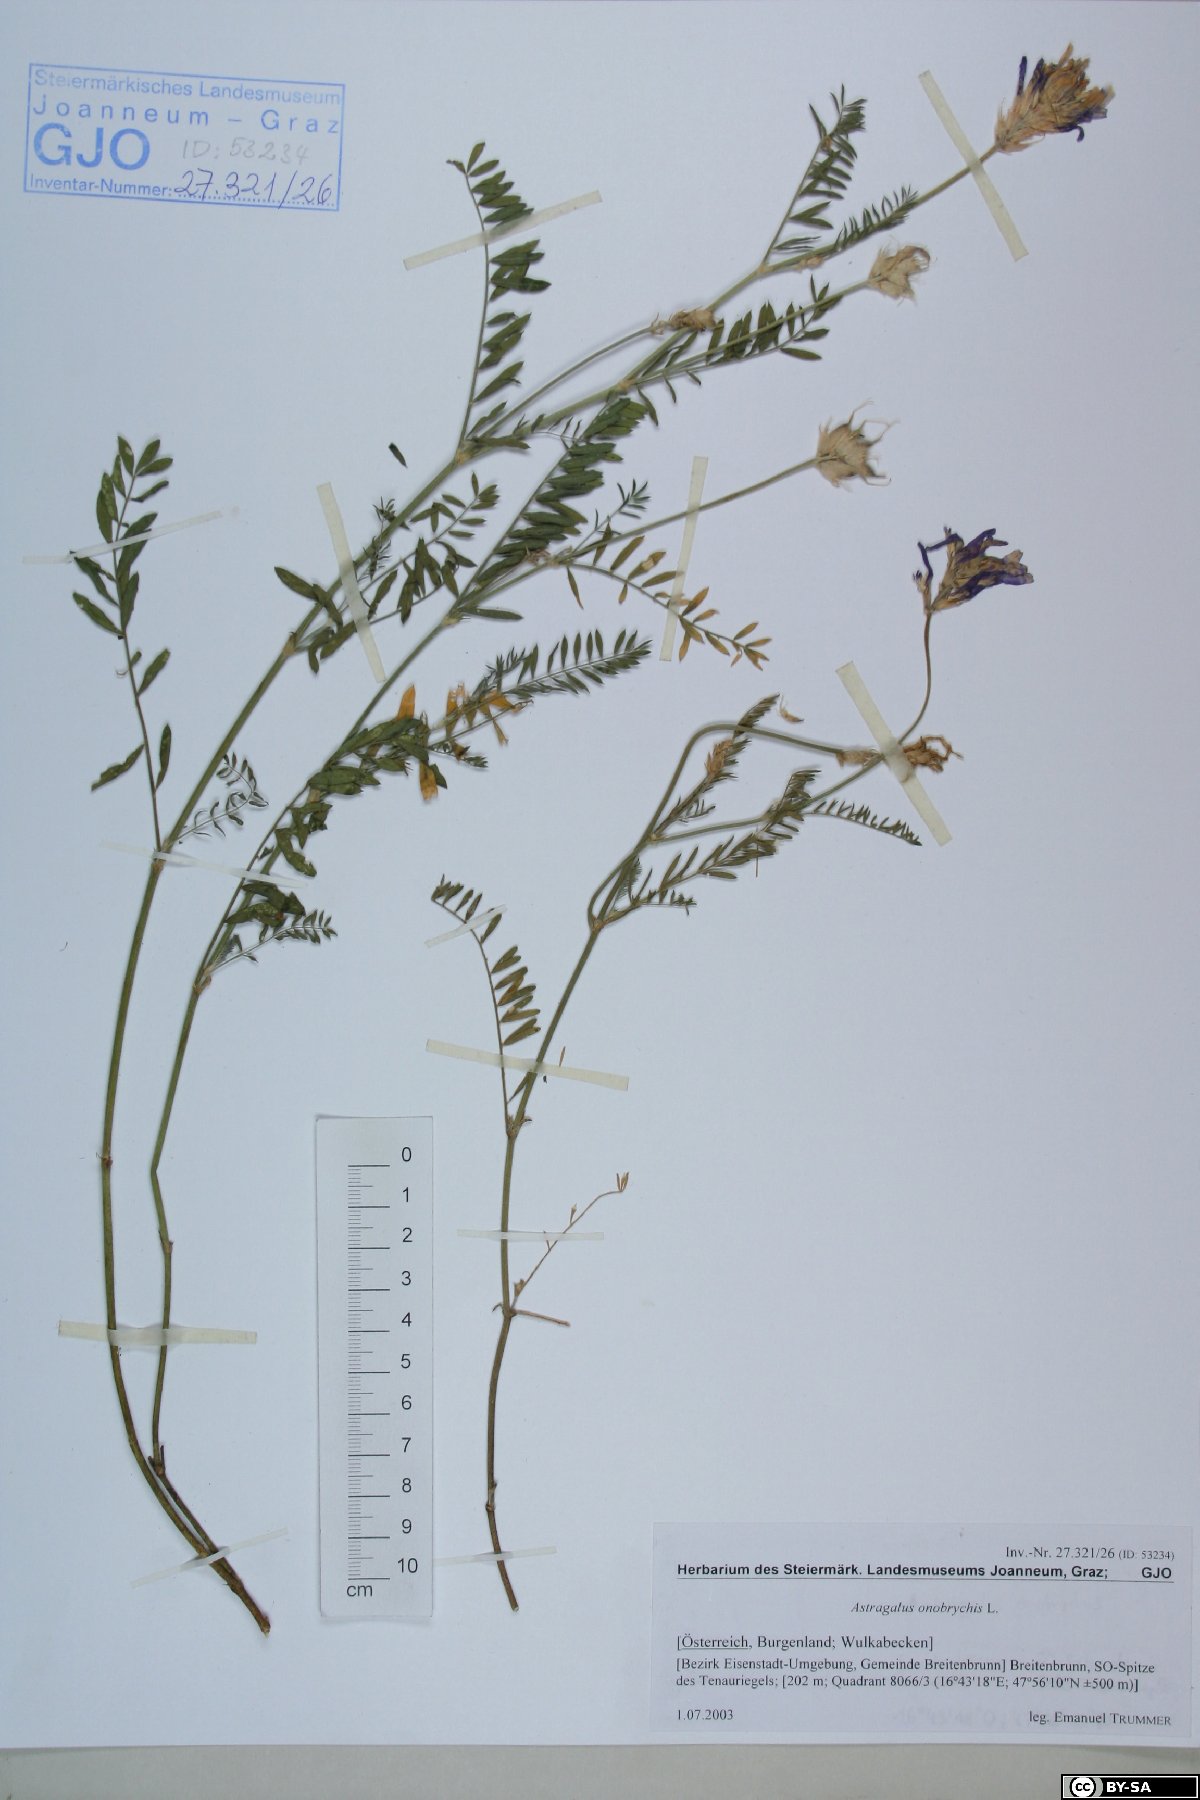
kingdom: Plantae
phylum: Tracheophyta
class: Magnoliopsida
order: Fabales
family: Fabaceae
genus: Astragalus
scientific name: Astragalus onobrychis
